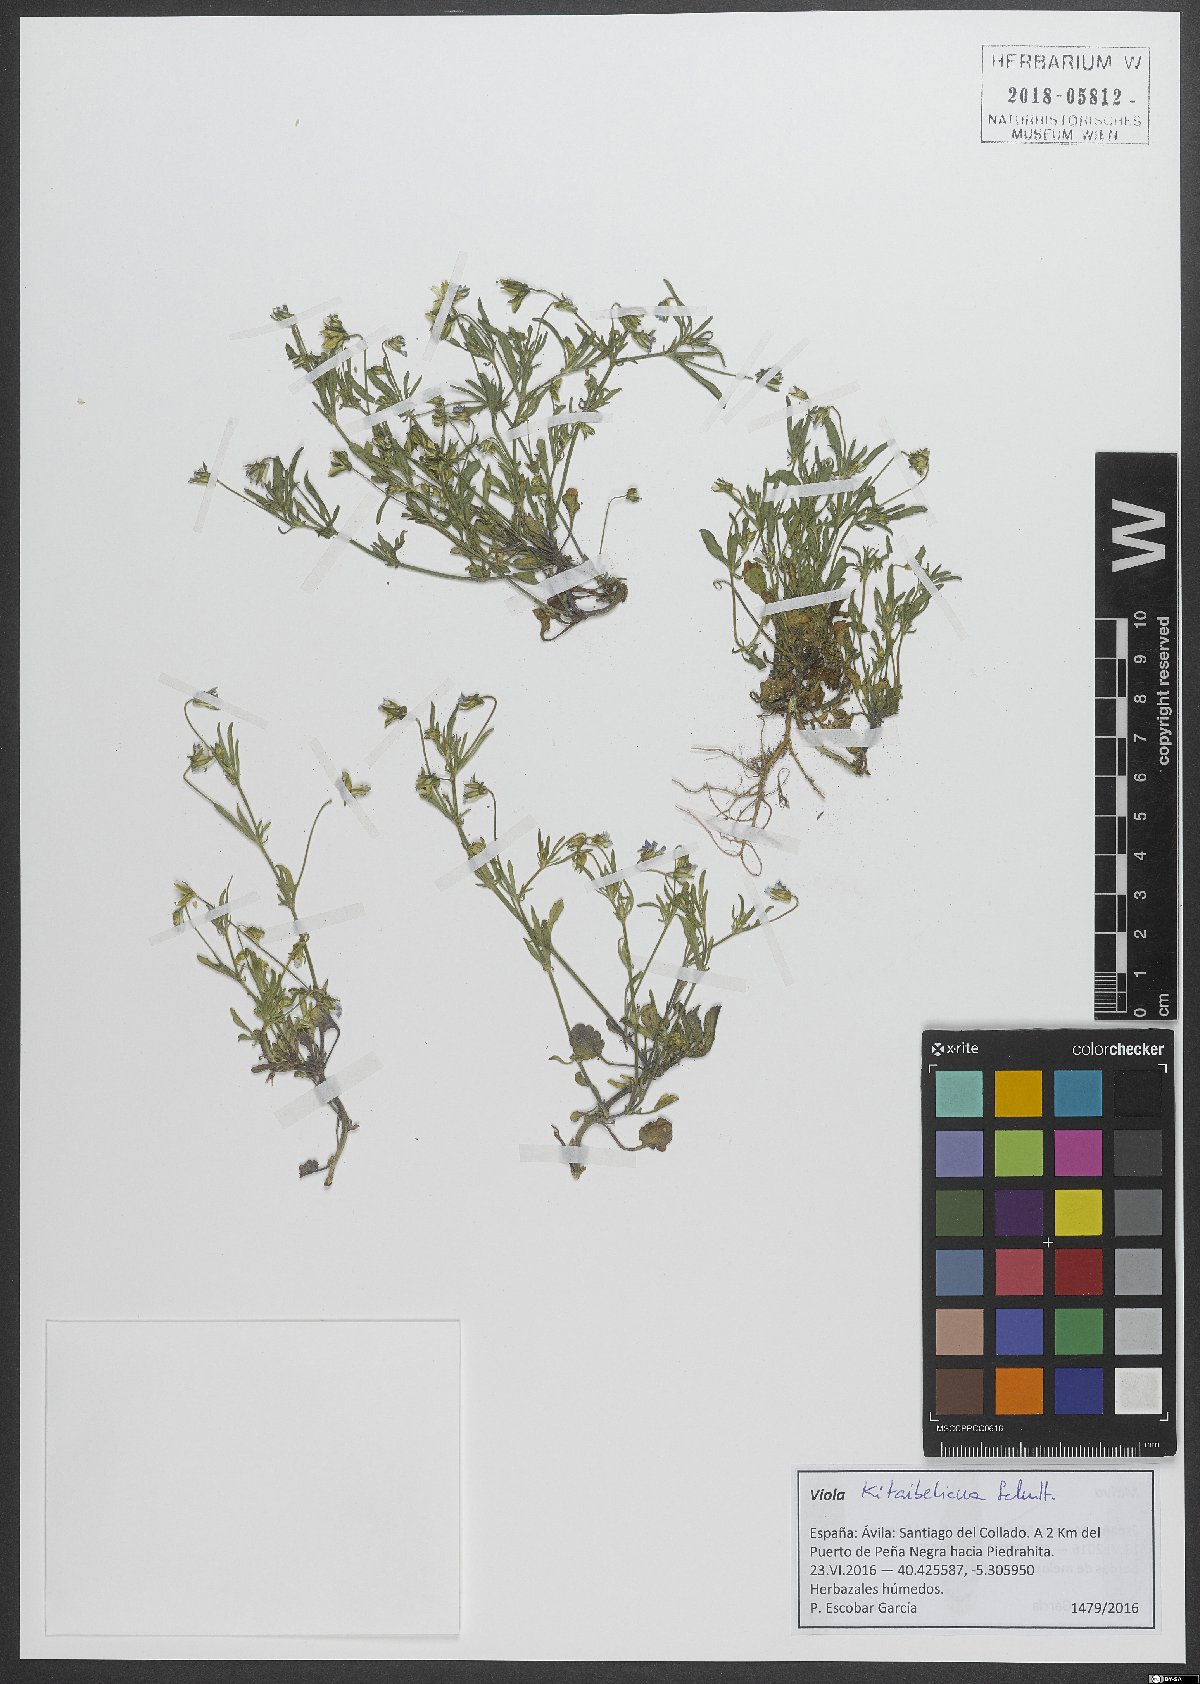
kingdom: Plantae
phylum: Tracheophyta
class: Magnoliopsida
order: Malpighiales
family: Violaceae
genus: Viola
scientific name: Viola kitaibeliana
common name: Dwarf pansy
